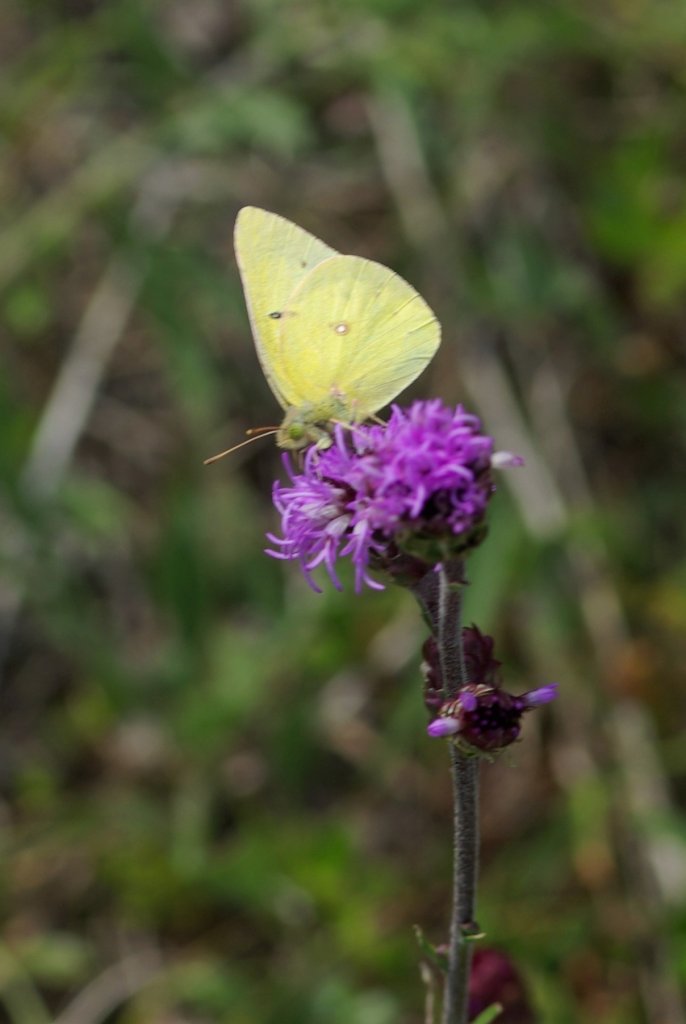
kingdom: Animalia
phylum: Arthropoda
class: Insecta
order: Lepidoptera
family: Pieridae
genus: Colias
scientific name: Colias philodice
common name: Clouded Sulphur
